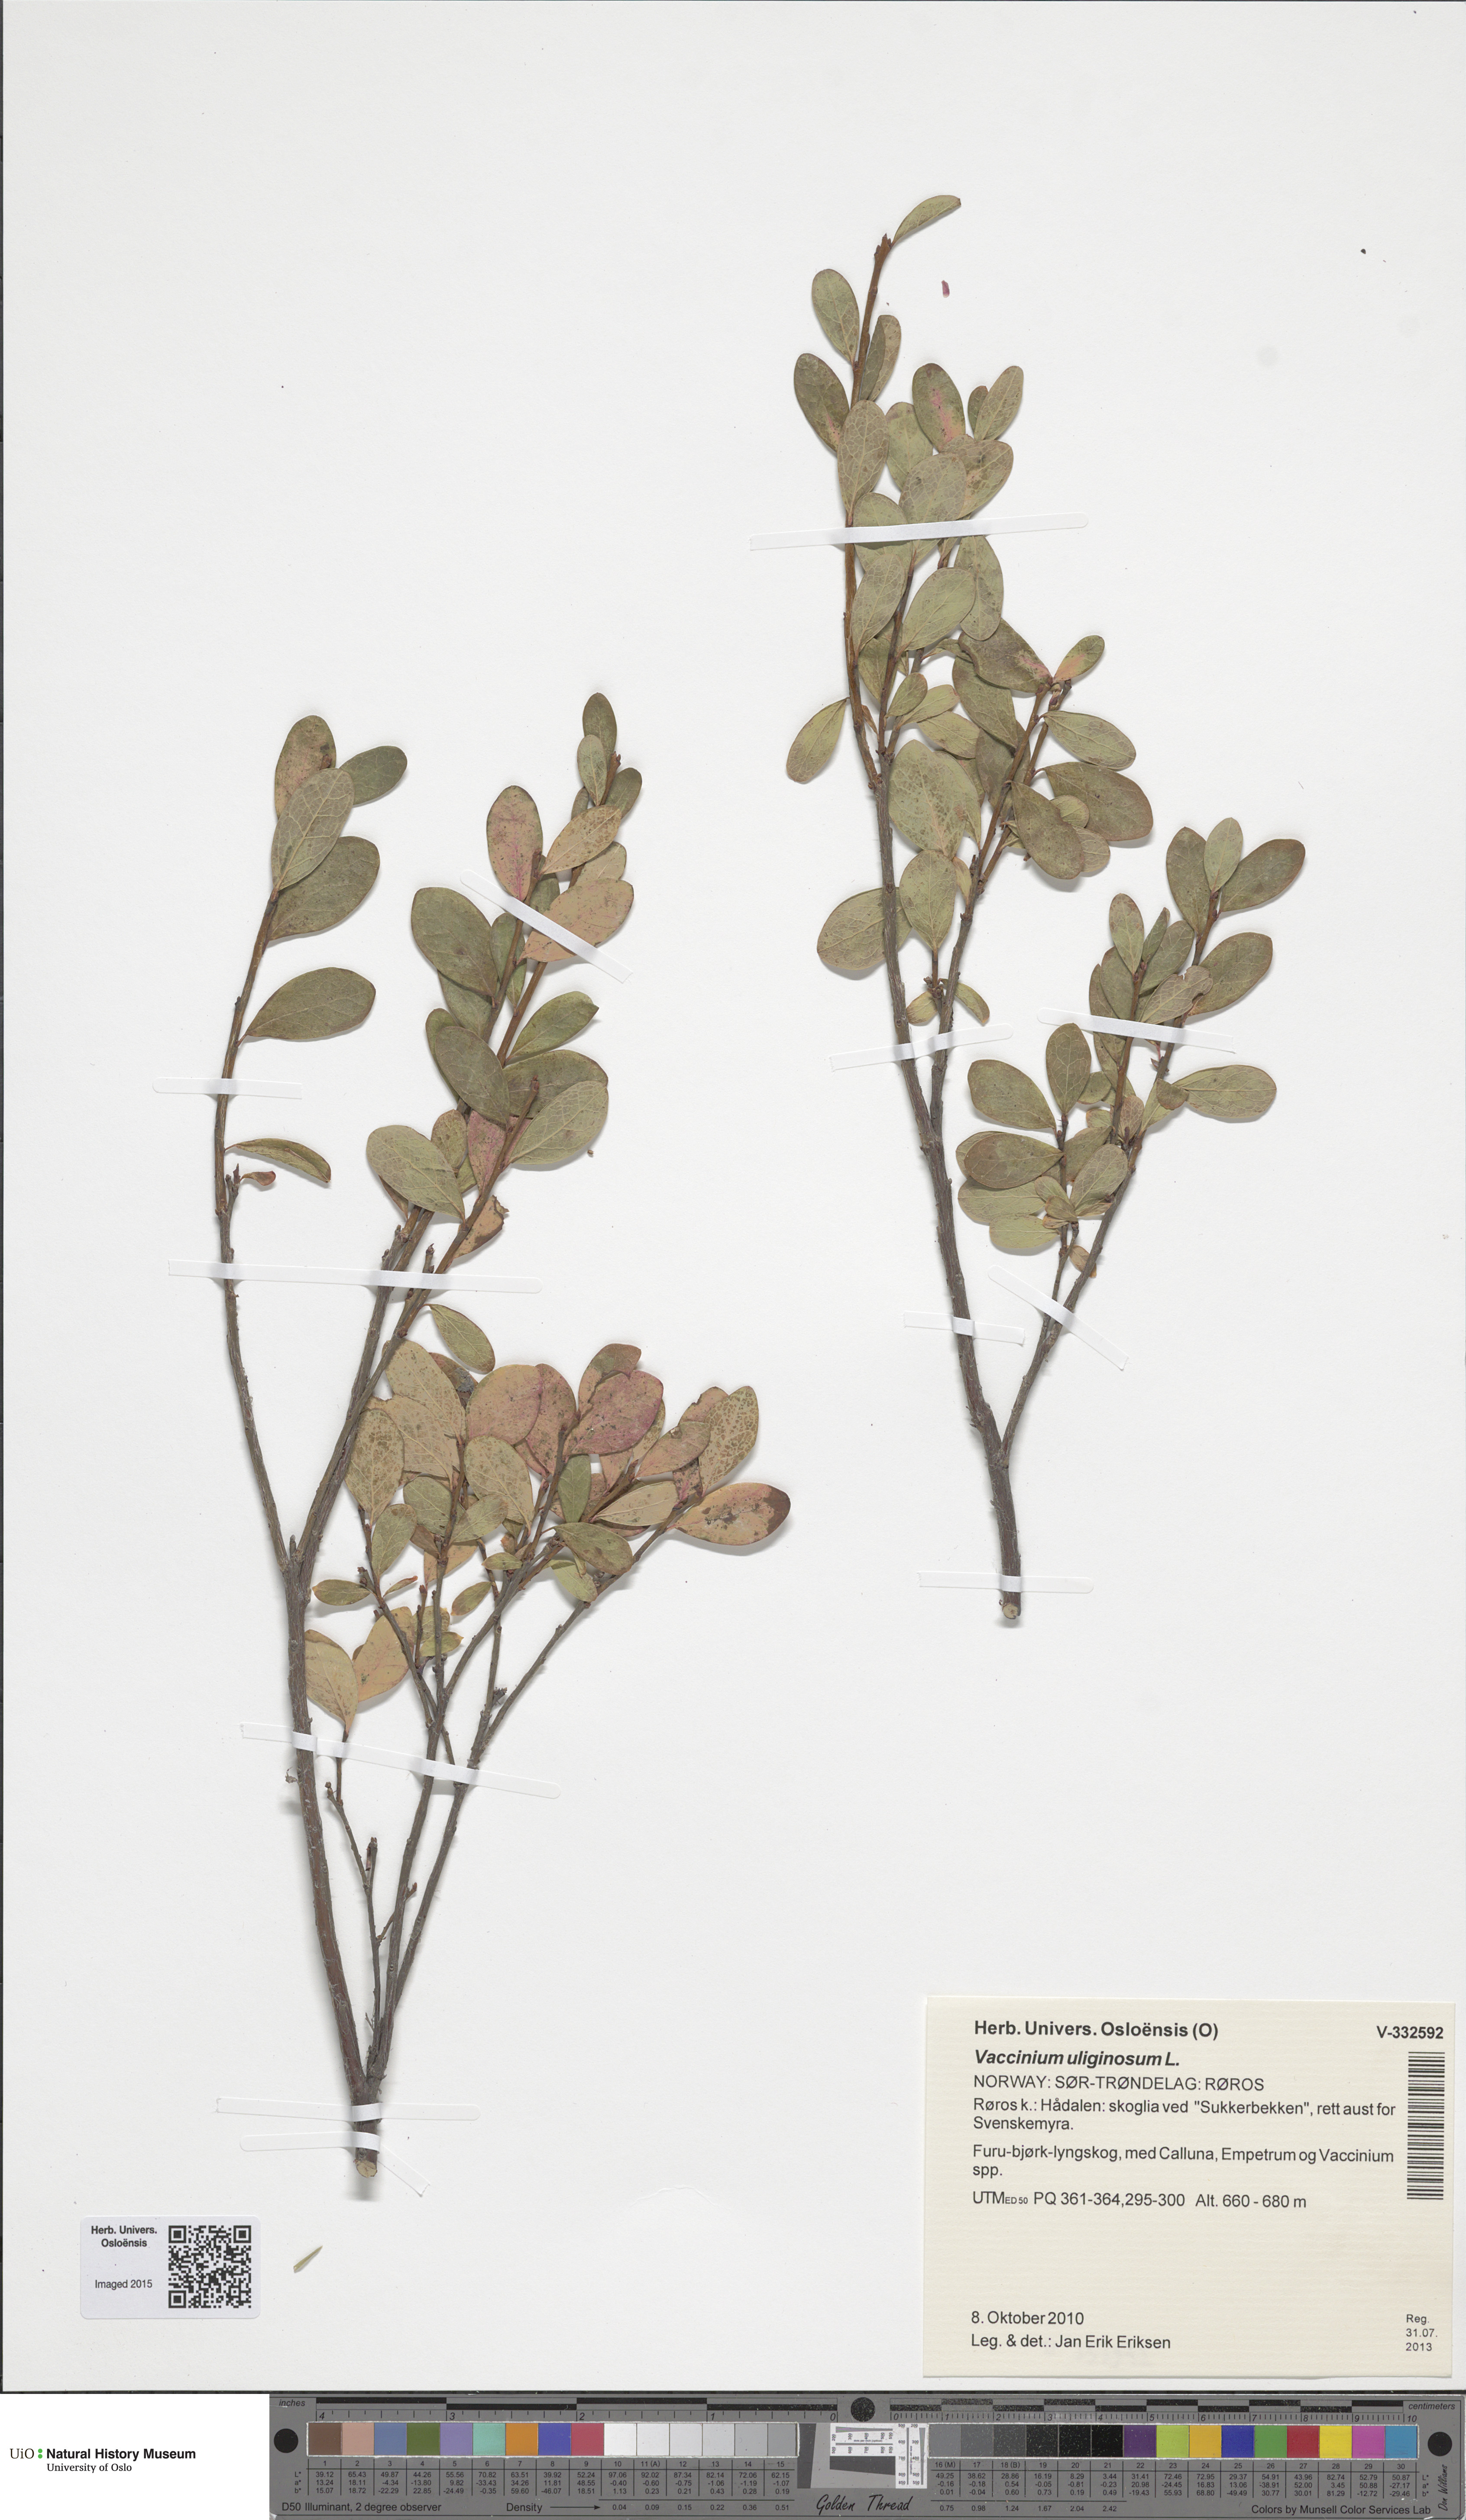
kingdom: Plantae
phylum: Tracheophyta
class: Magnoliopsida
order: Ericales
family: Ericaceae
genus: Vaccinium
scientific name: Vaccinium uliginosum
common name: Bog bilberry
